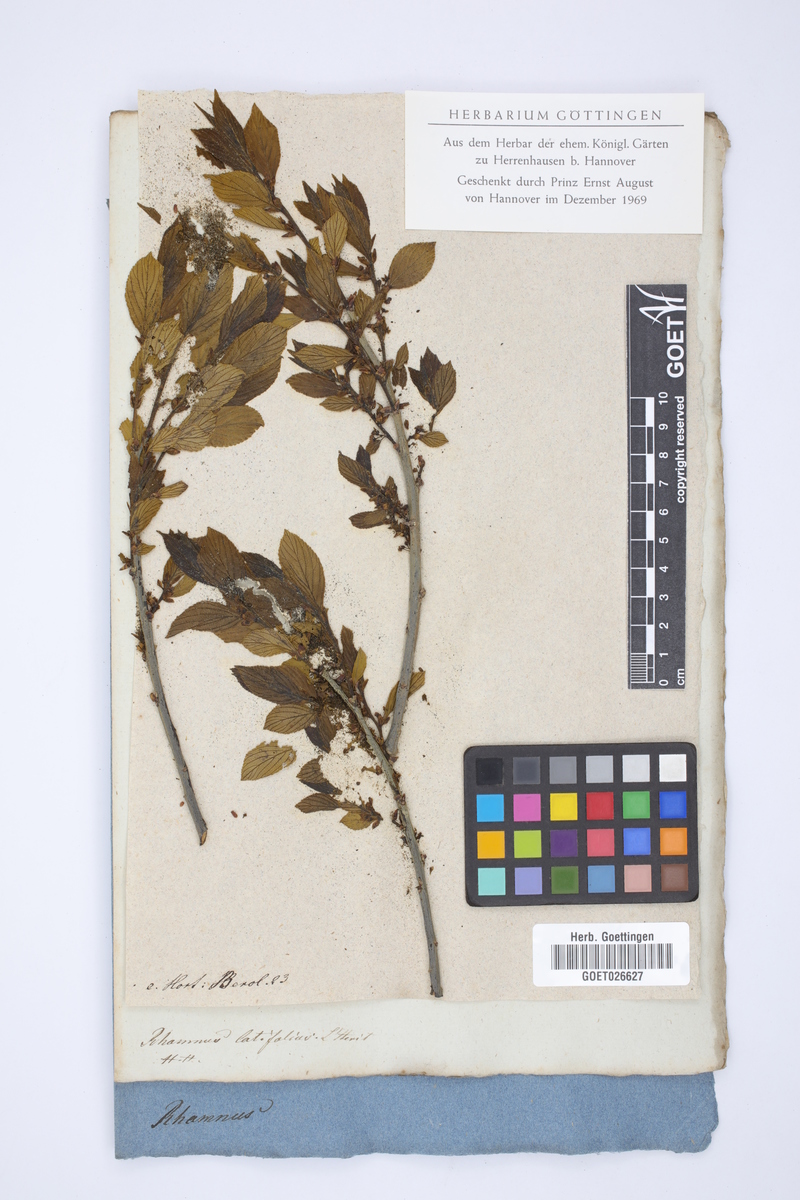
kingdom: Plantae
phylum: Tracheophyta
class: Magnoliopsida
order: Rosales
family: Rhamnaceae
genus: Frangula
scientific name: Frangula azorica
